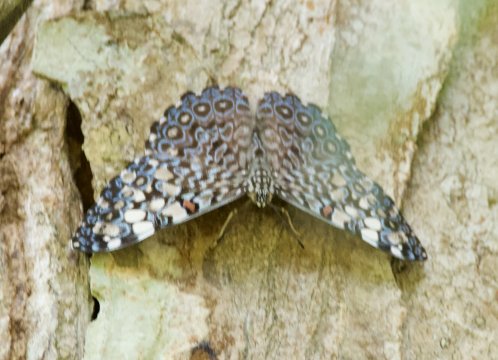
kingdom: Animalia
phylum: Arthropoda
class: Insecta
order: Lepidoptera
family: Nymphalidae
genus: Hamadryas
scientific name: Hamadryas feronia
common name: Variable Cracker
